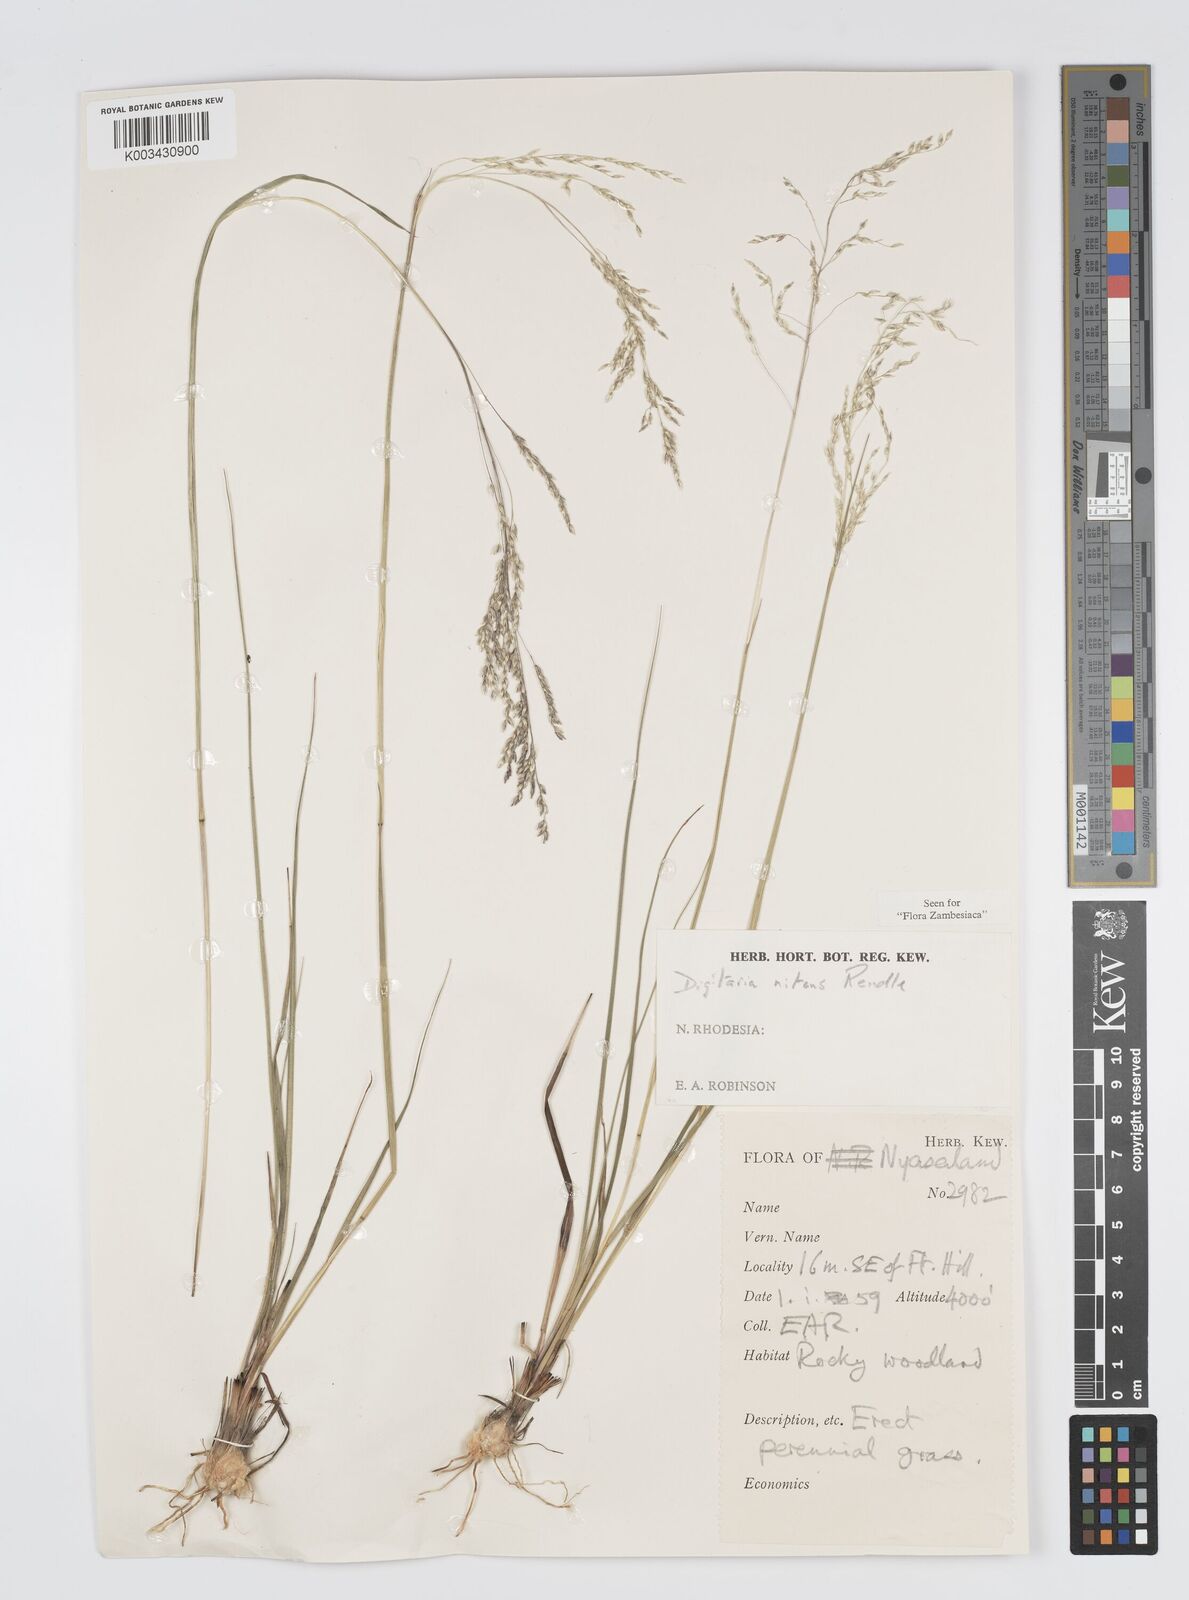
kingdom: Plantae
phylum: Tracheophyta
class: Liliopsida
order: Poales
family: Poaceae
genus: Digitaria
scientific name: Digitaria flaccida
